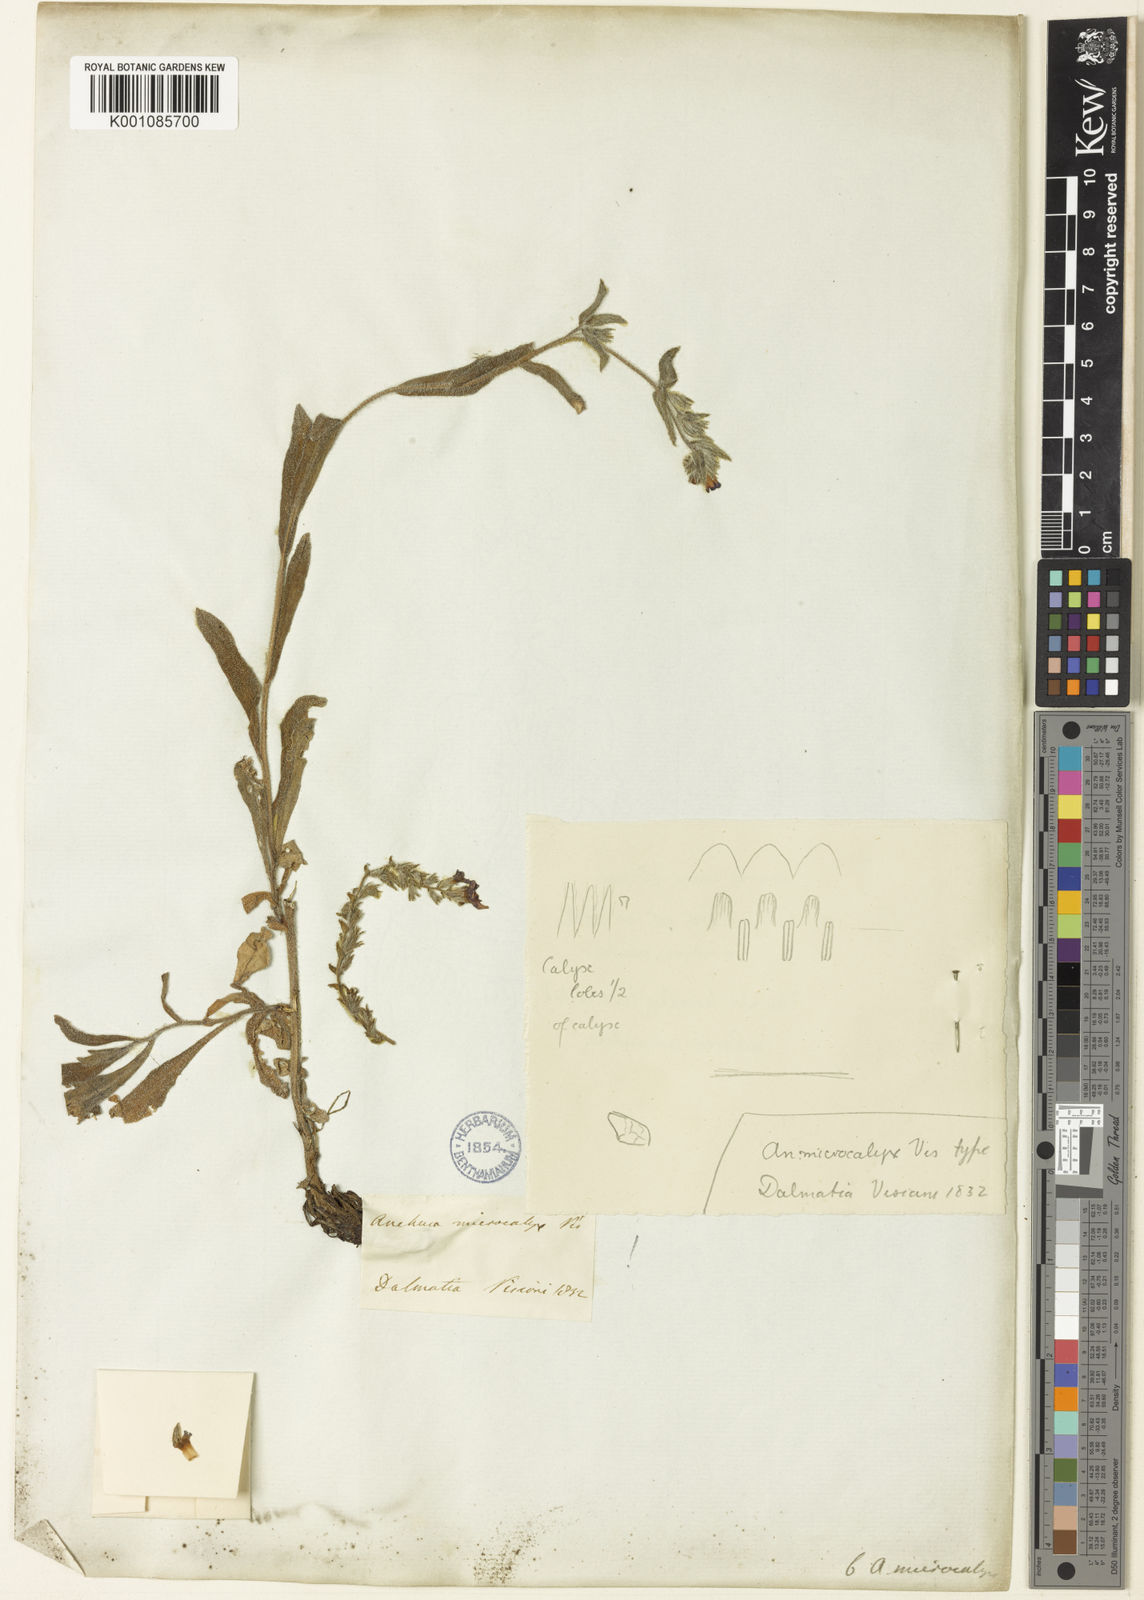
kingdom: Plantae
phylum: Tracheophyta
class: Magnoliopsida
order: Boraginales
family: Boraginaceae
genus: Anchusa
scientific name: Anchusa officinalis
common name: Alkanet
